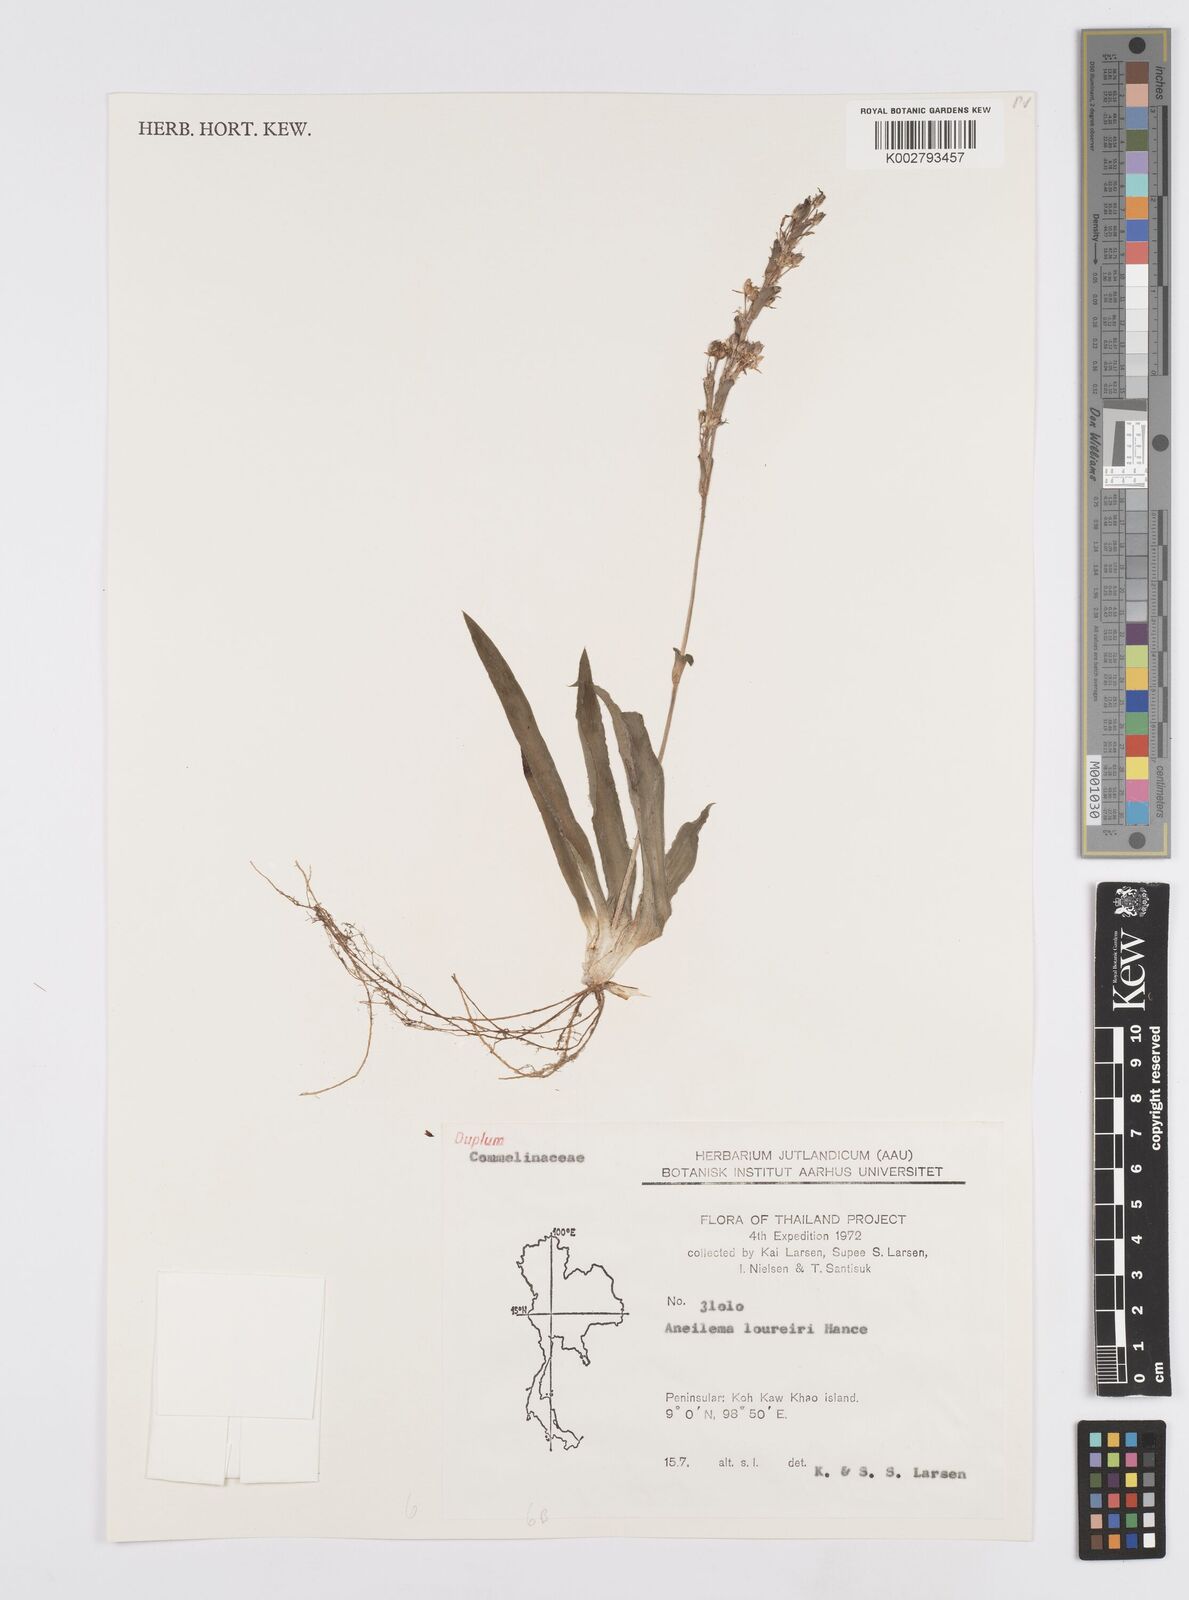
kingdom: Plantae
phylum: Tracheophyta
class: Liliopsida
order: Commelinales
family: Commelinaceae
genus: Murdannia
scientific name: Murdannia edulis
